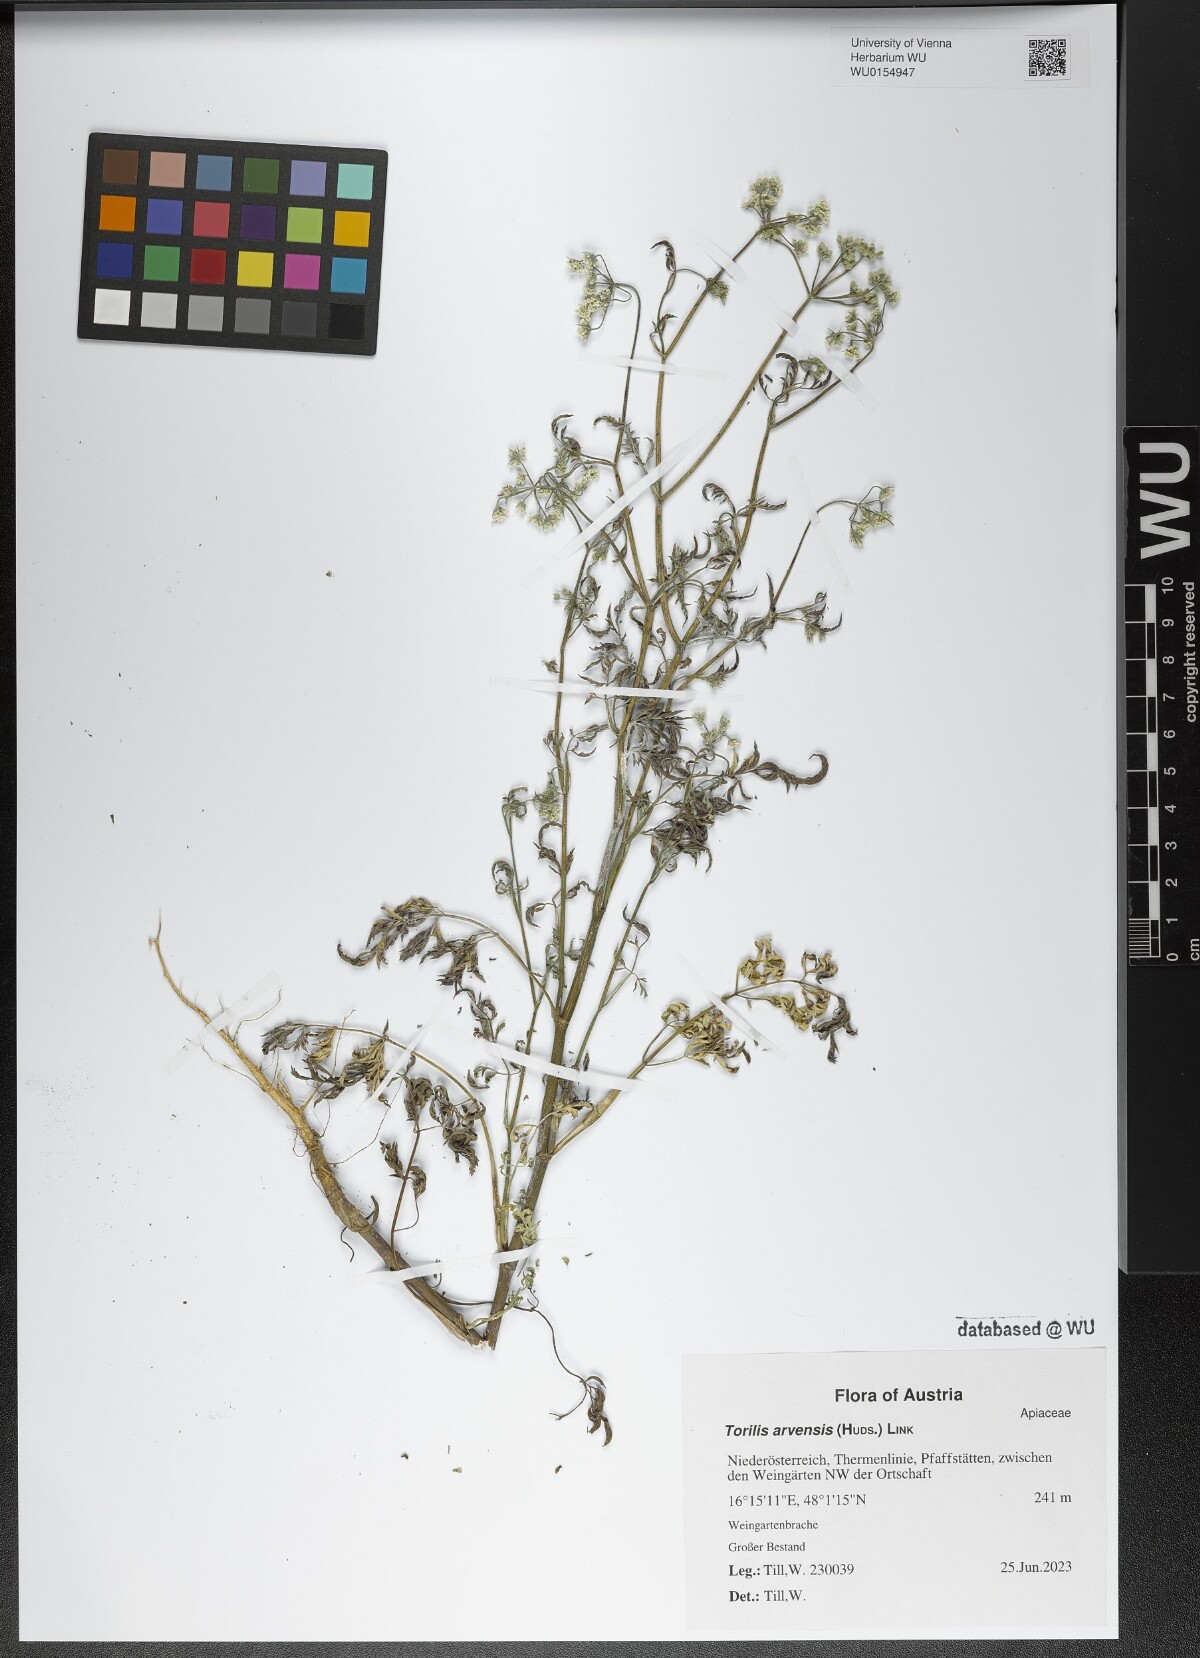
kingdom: Plantae
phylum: Tracheophyta
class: Magnoliopsida
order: Apiales
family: Apiaceae
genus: Torilis
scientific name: Torilis arvensis
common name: Spreading hedge-parsley
